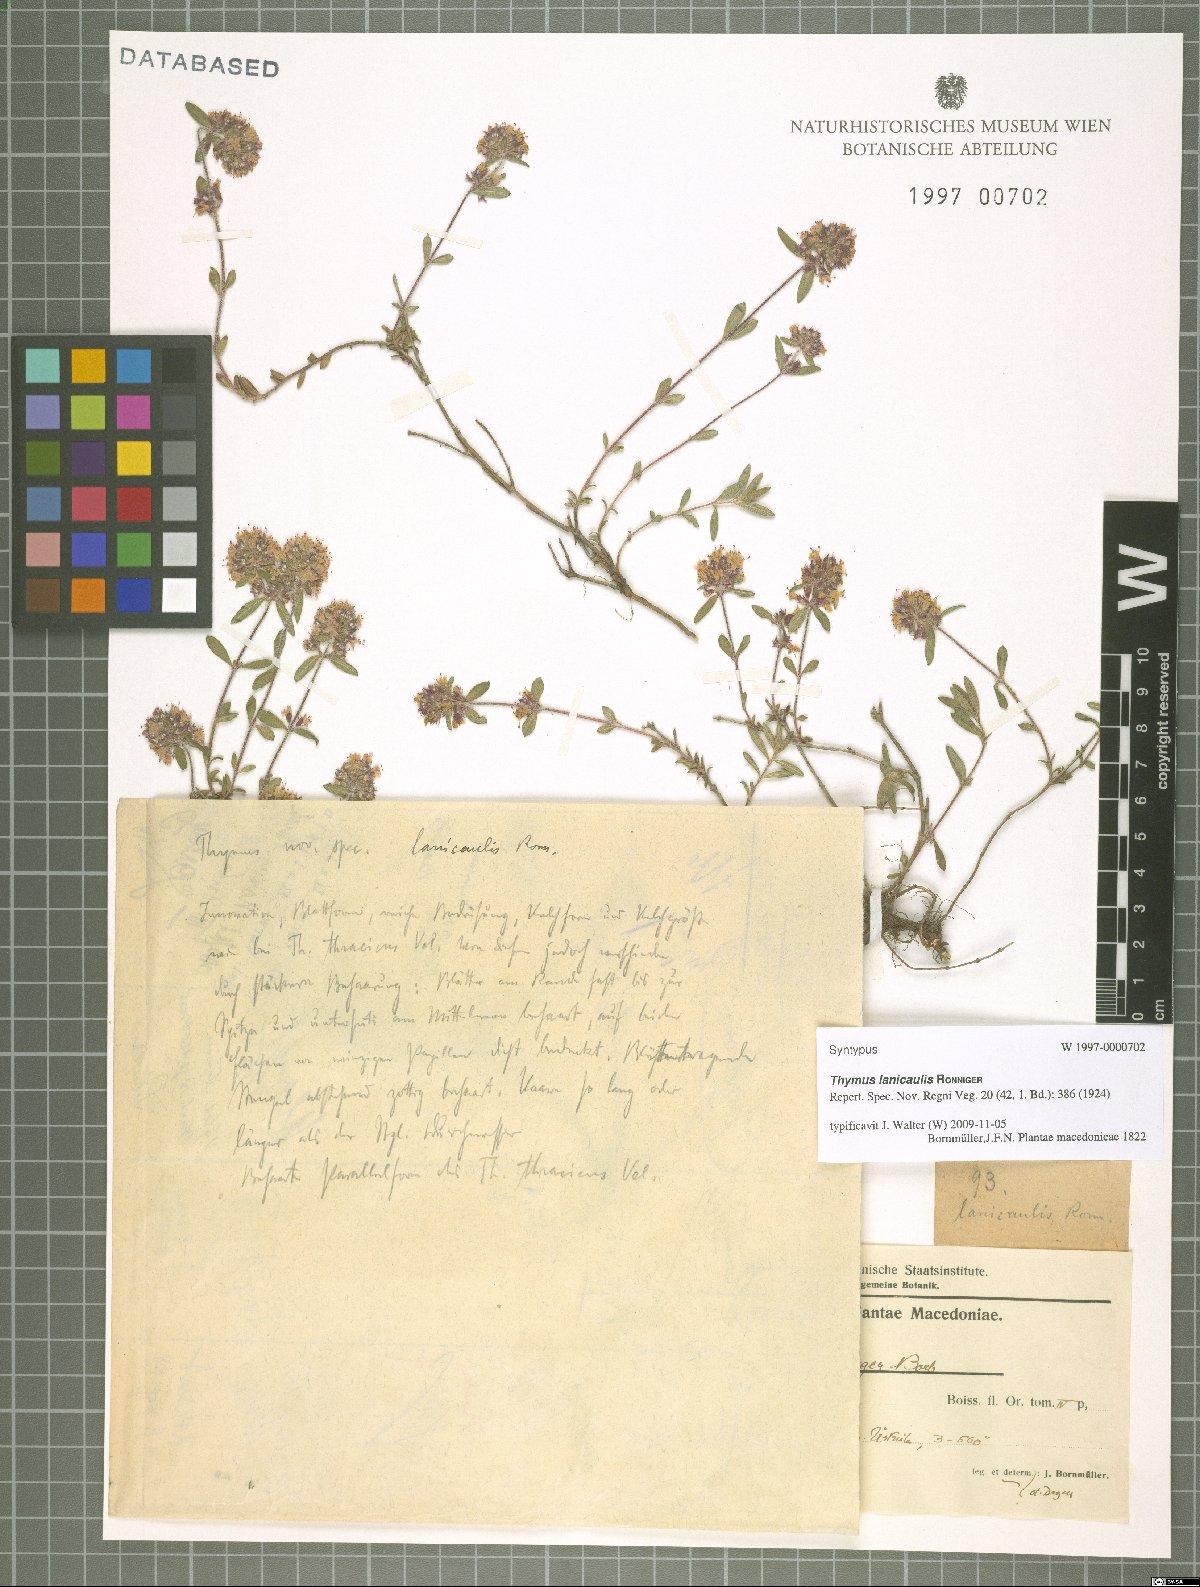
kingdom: Plantae
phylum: Tracheophyta
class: Magnoliopsida
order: Lamiales
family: Lamiaceae
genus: Thymus
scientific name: Thymus thracicus
